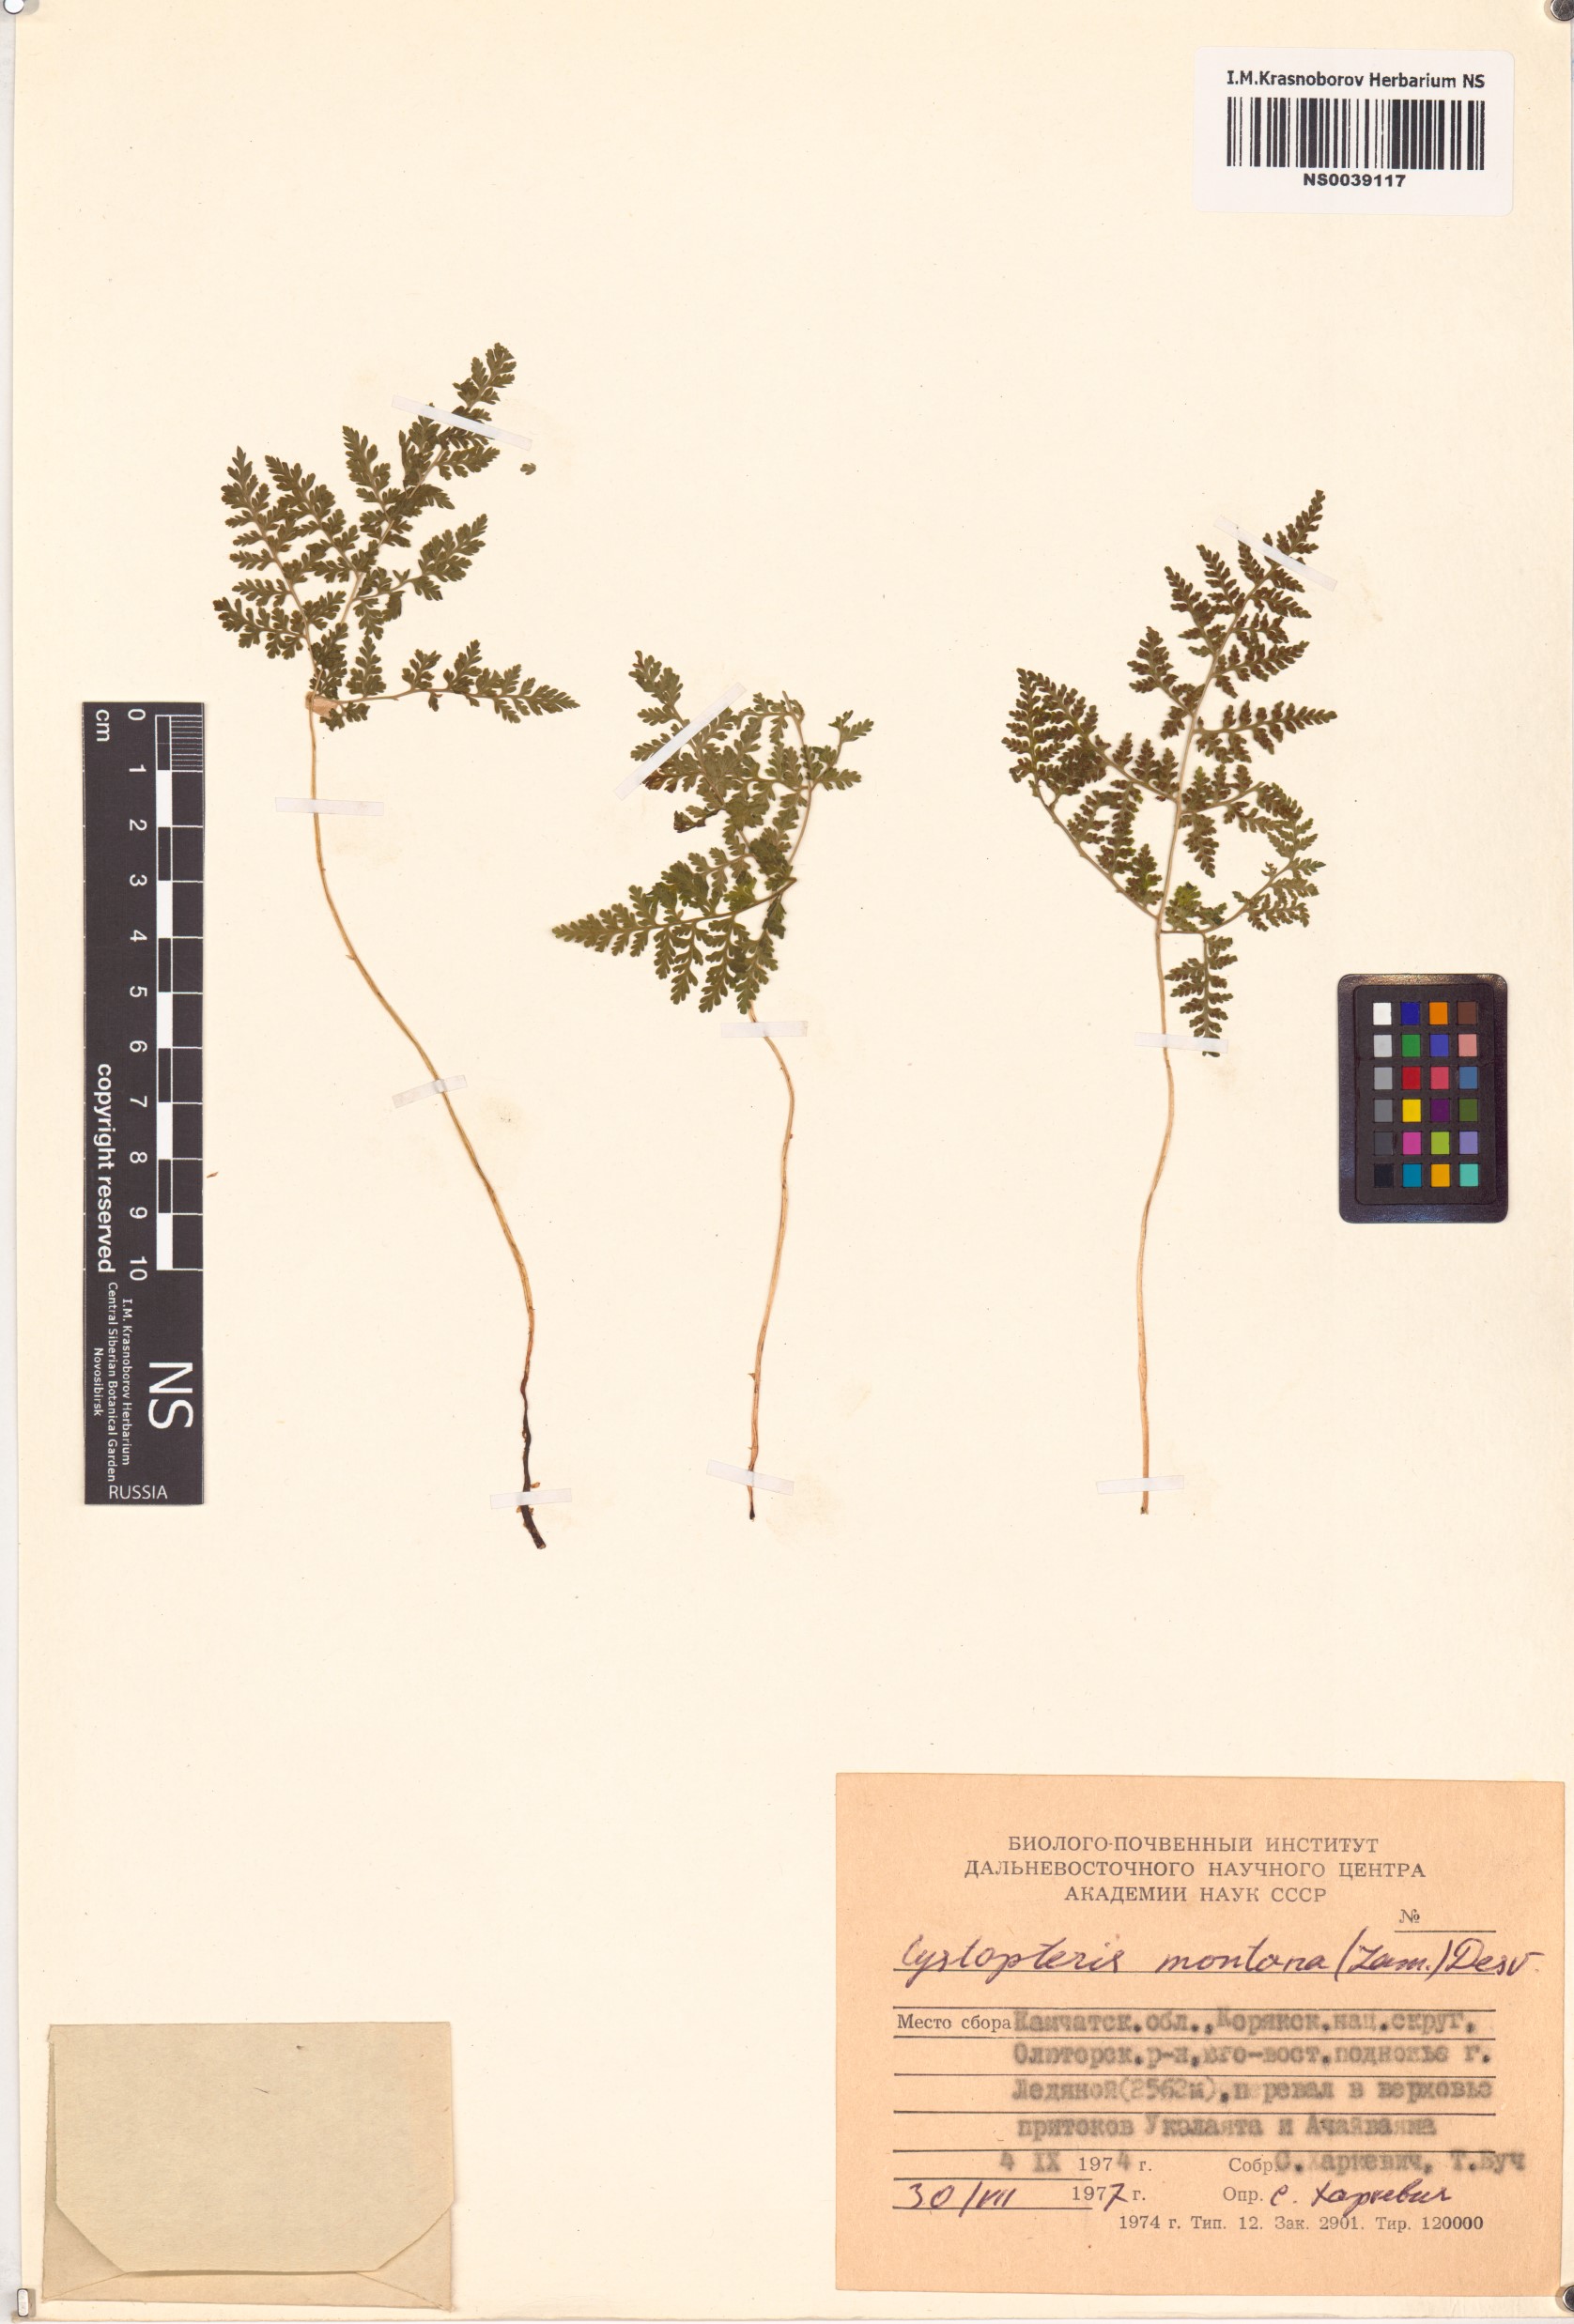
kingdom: Plantae
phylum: Tracheophyta
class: Polypodiopsida
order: Polypodiales
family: Cystopteridaceae
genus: Cystopteris
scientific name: Cystopteris montana
